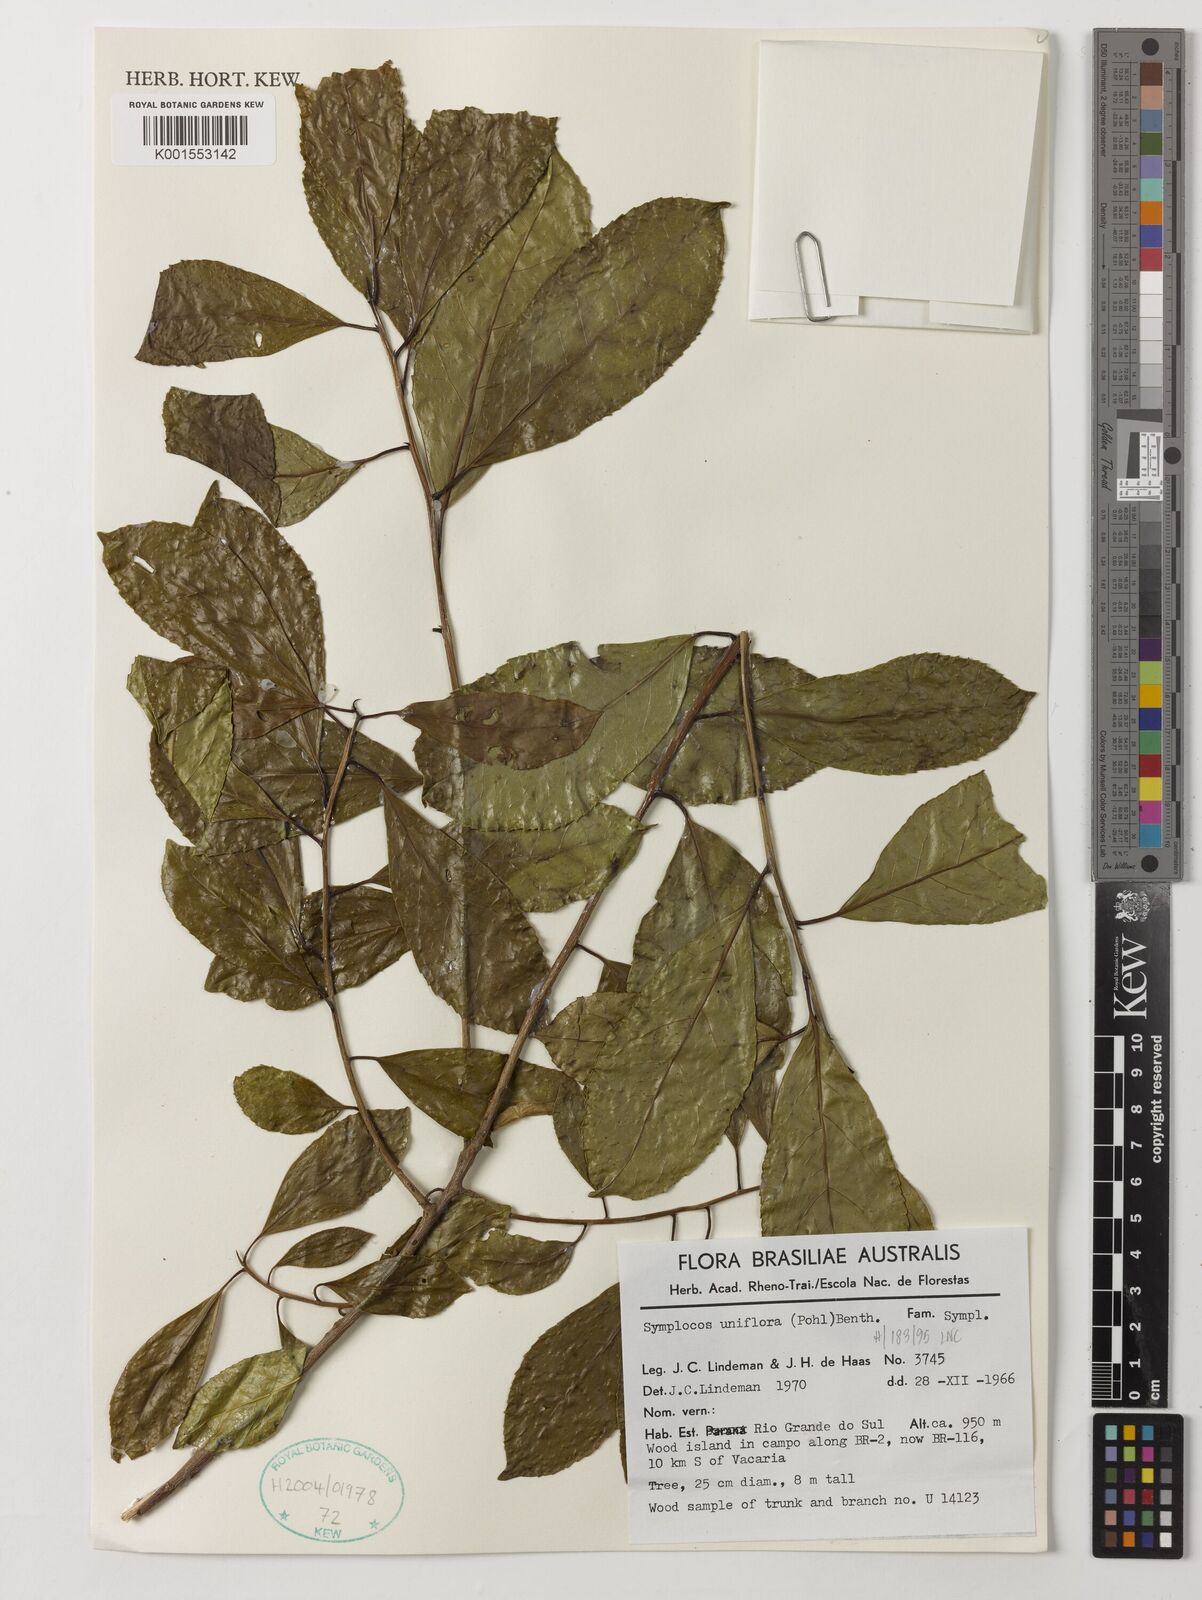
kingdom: Plantae
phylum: Tracheophyta
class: Magnoliopsida
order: Ericales
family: Symplocaceae
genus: Symplocos
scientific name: Symplocos uniflora
